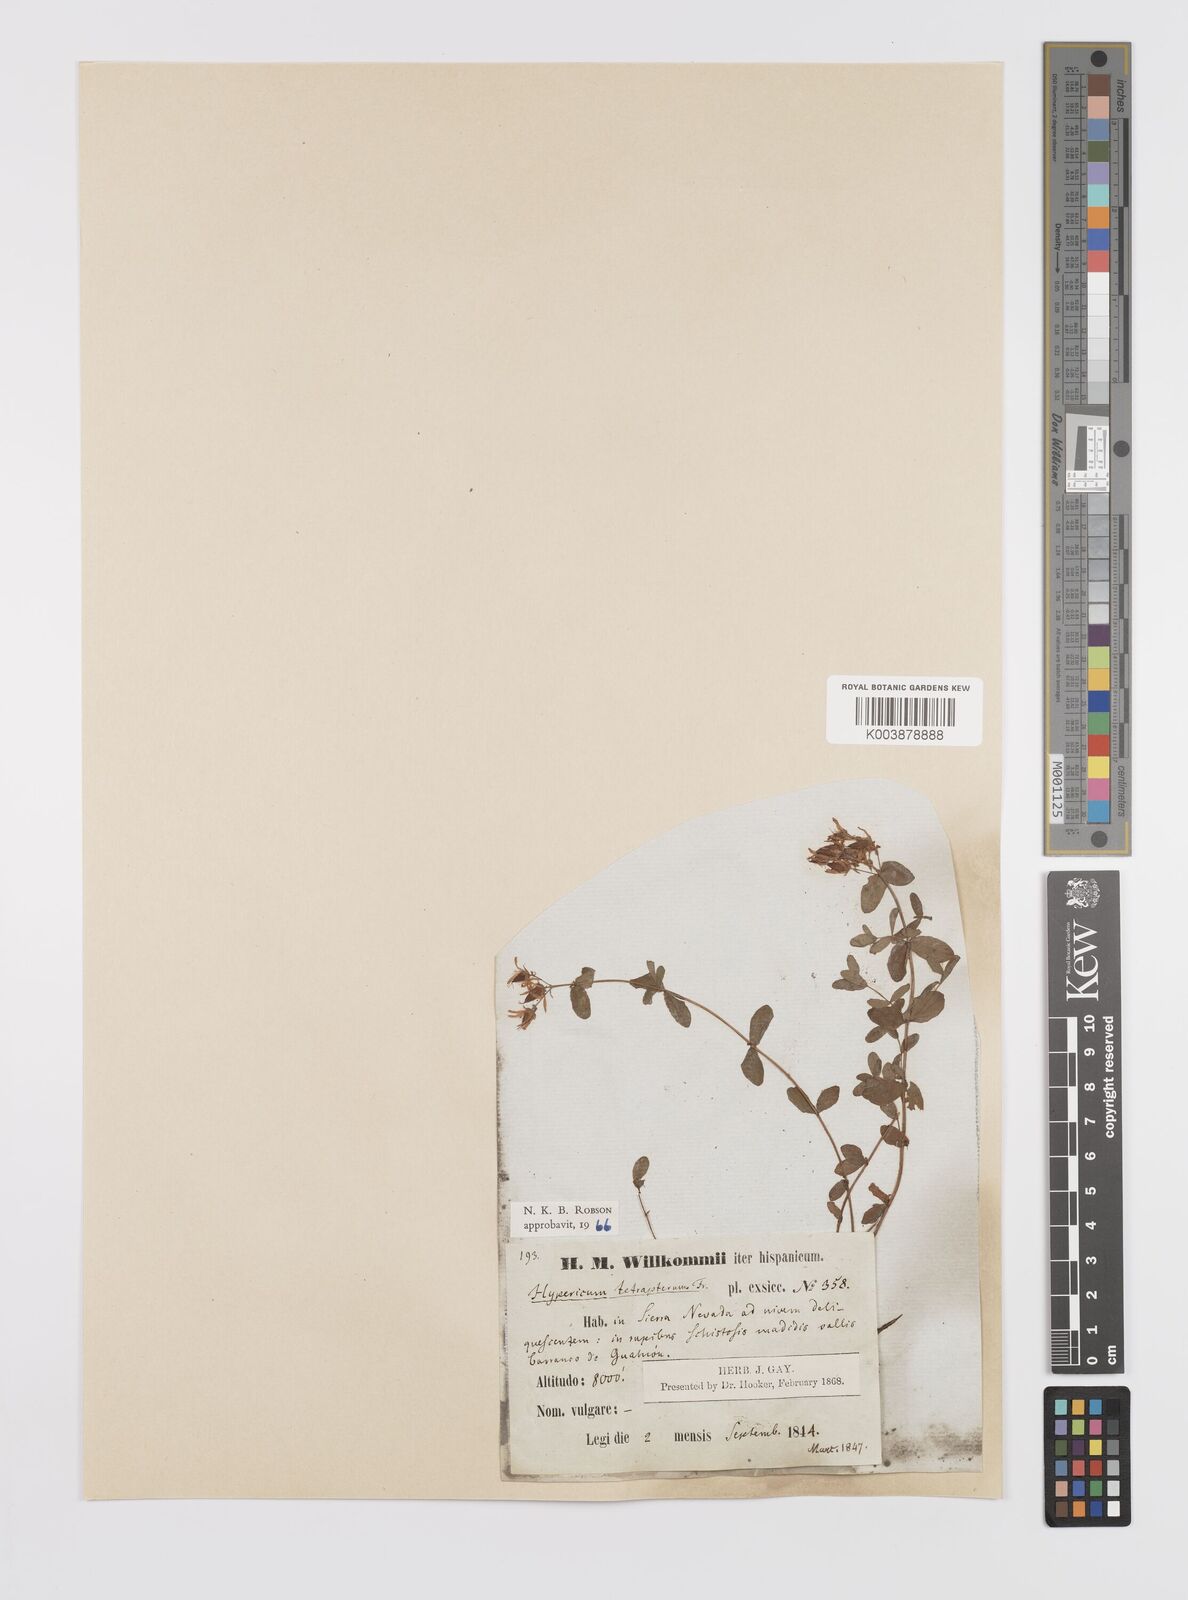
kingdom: Plantae
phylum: Tracheophyta
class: Magnoliopsida
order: Malpighiales
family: Hypericaceae
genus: Hypericum
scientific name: Hypericum tetrapterum
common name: Square-stalked st. john's-wort
